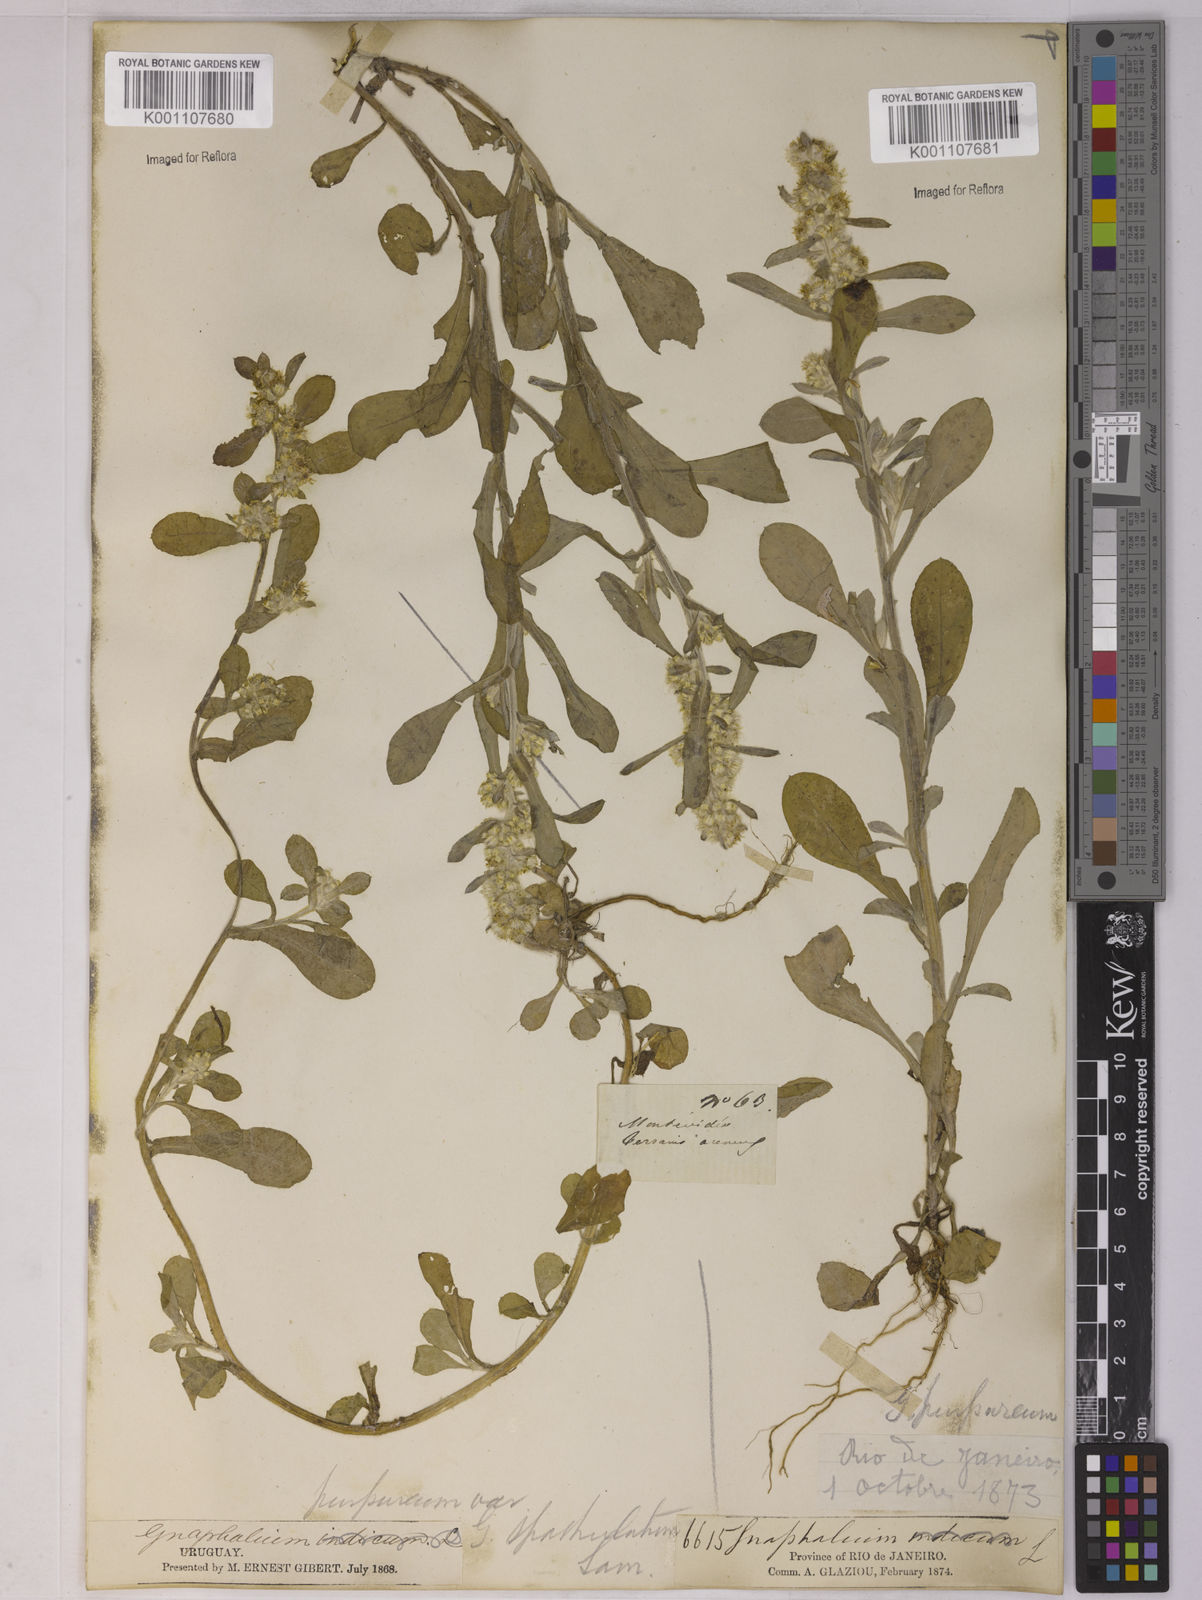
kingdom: Plantae
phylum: Tracheophyta
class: Magnoliopsida
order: Asterales
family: Asteraceae
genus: Gamochaeta
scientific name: Gamochaeta pensylvanica
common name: Pennsylvania everlasting
